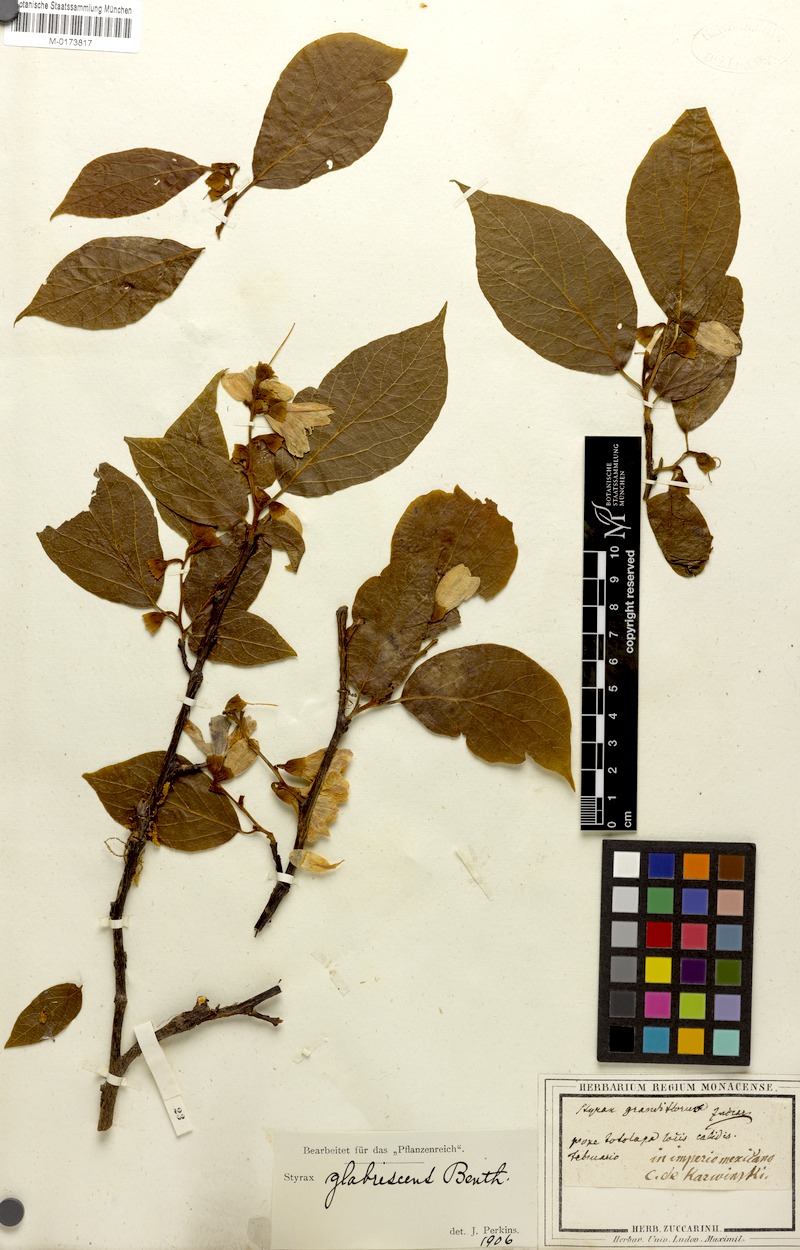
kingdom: Plantae
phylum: Tracheophyta
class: Magnoliopsida
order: Ericales
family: Styracaceae
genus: Styrax
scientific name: Styrax glabrescens
